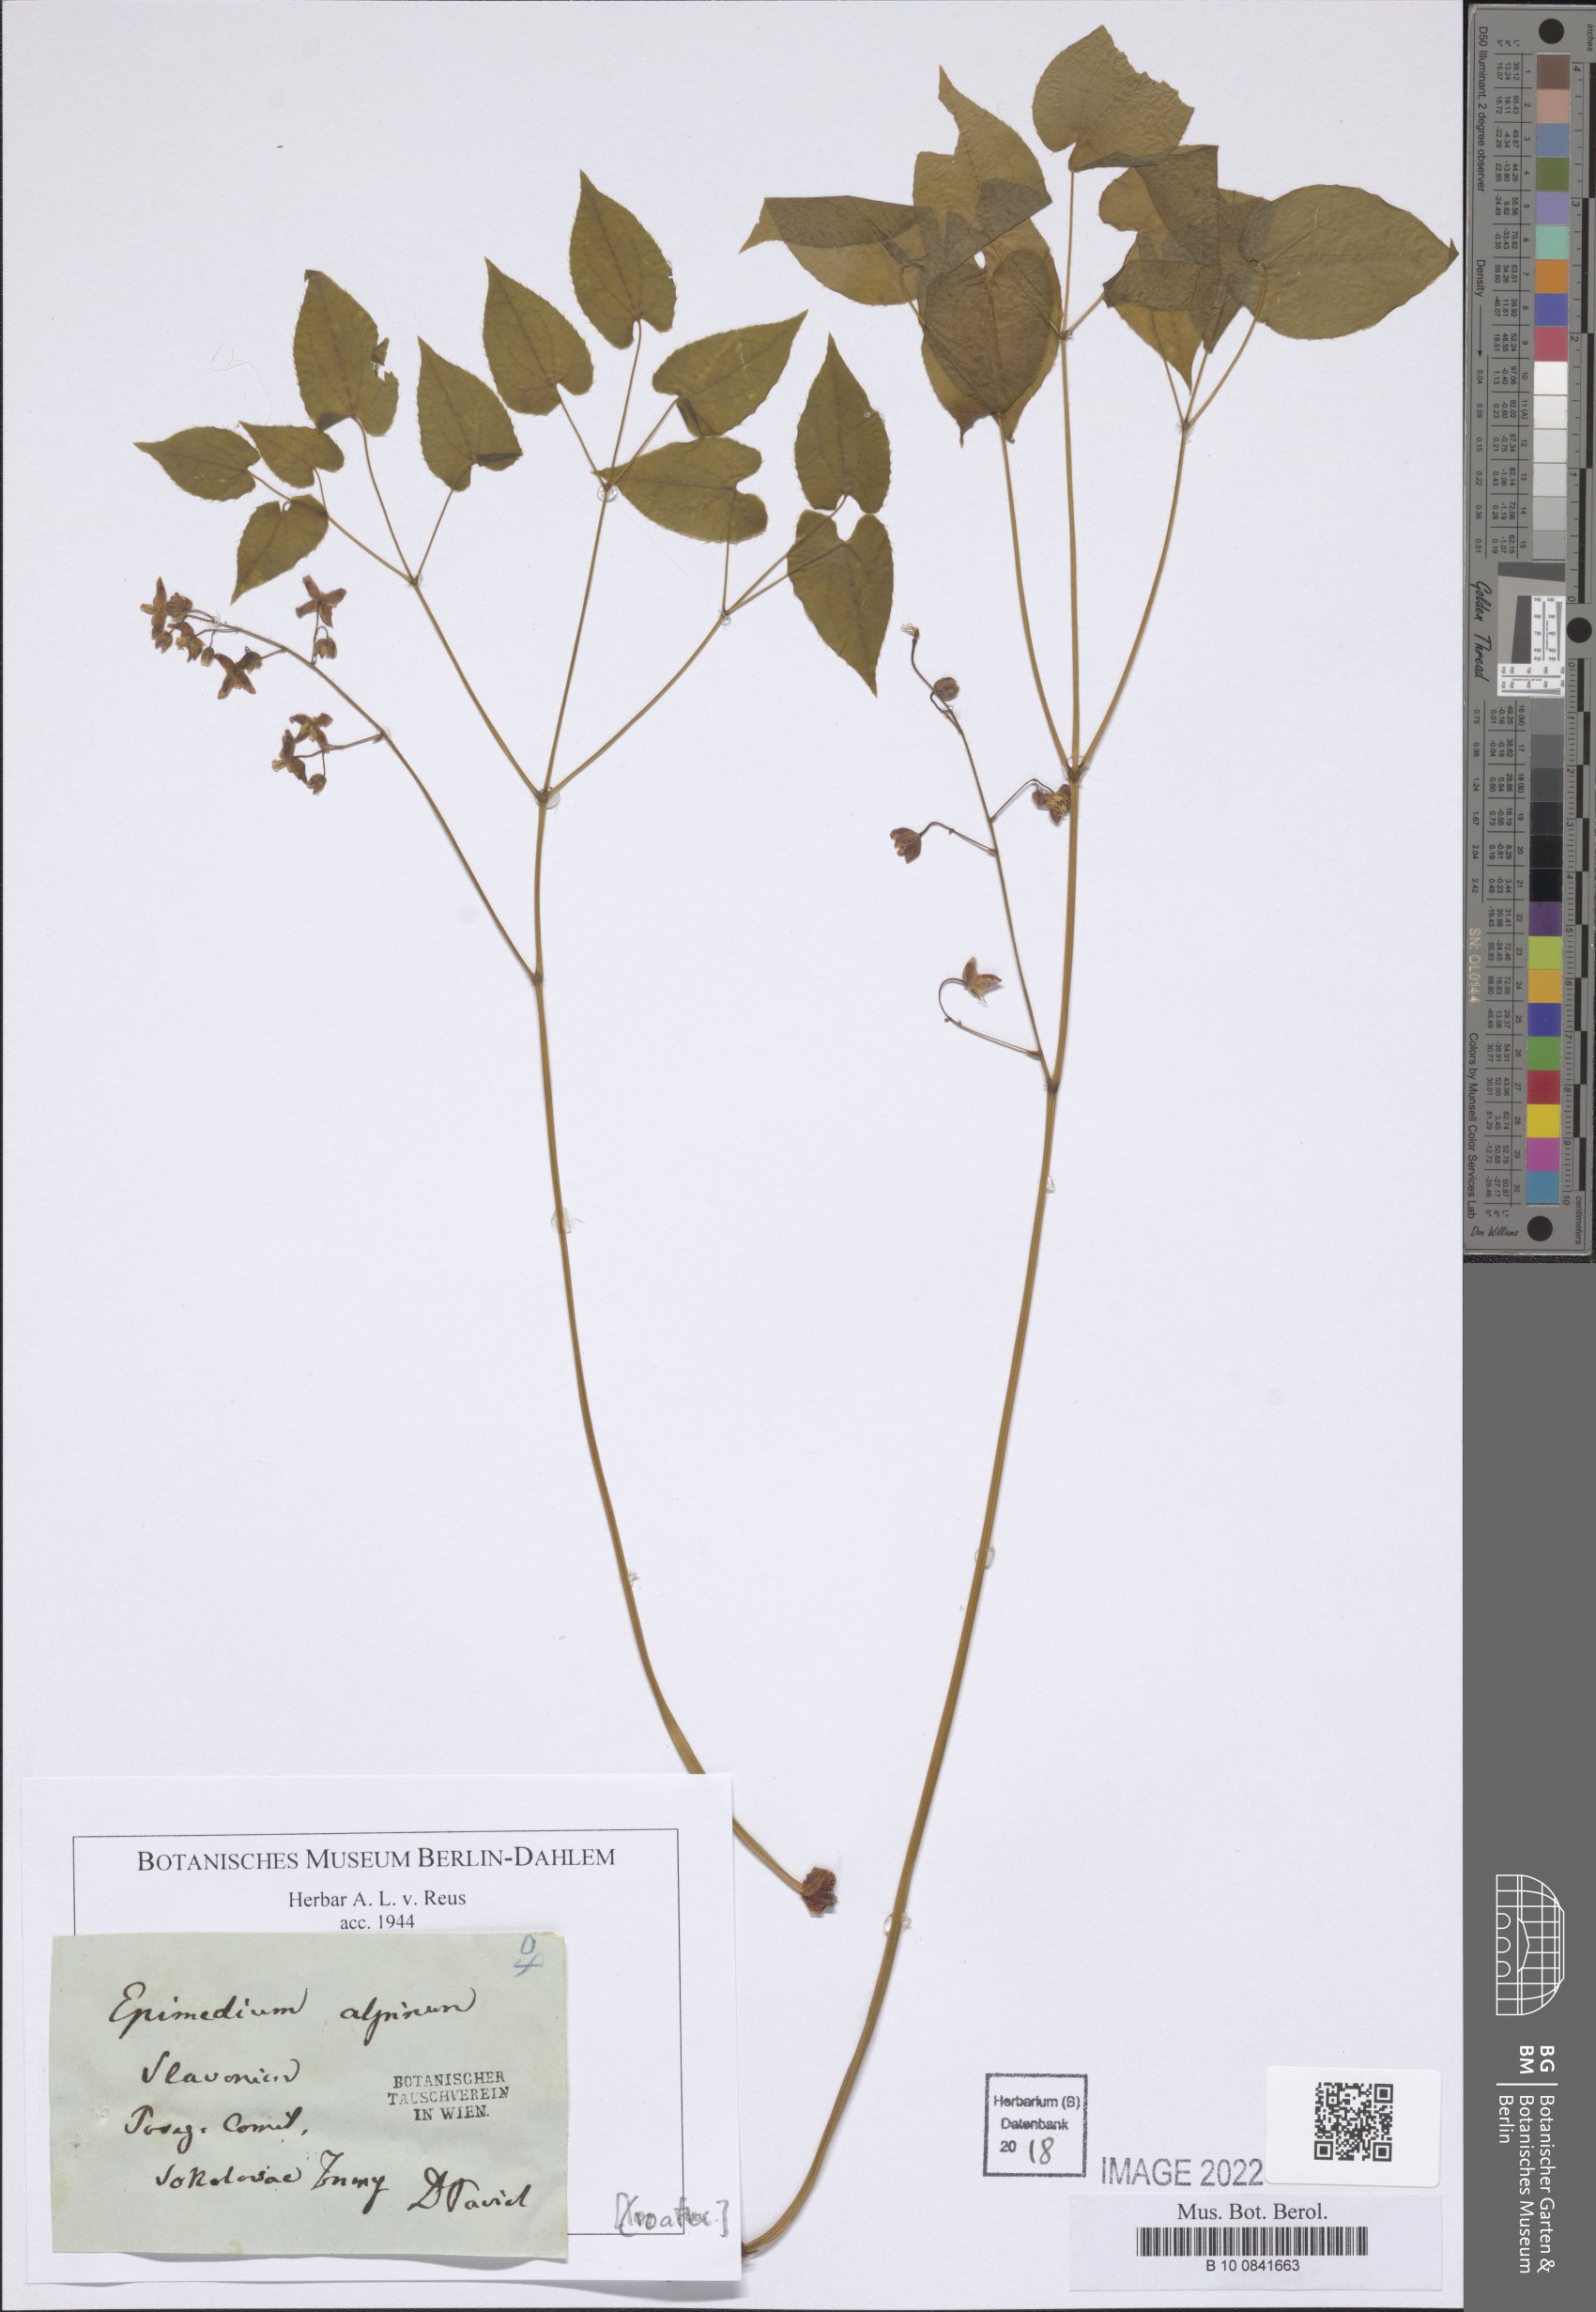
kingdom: Plantae
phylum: Tracheophyta
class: Magnoliopsida
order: Ranunculales
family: Berberidaceae
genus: Epimedium
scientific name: Epimedium alpinum
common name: Barrenwort
